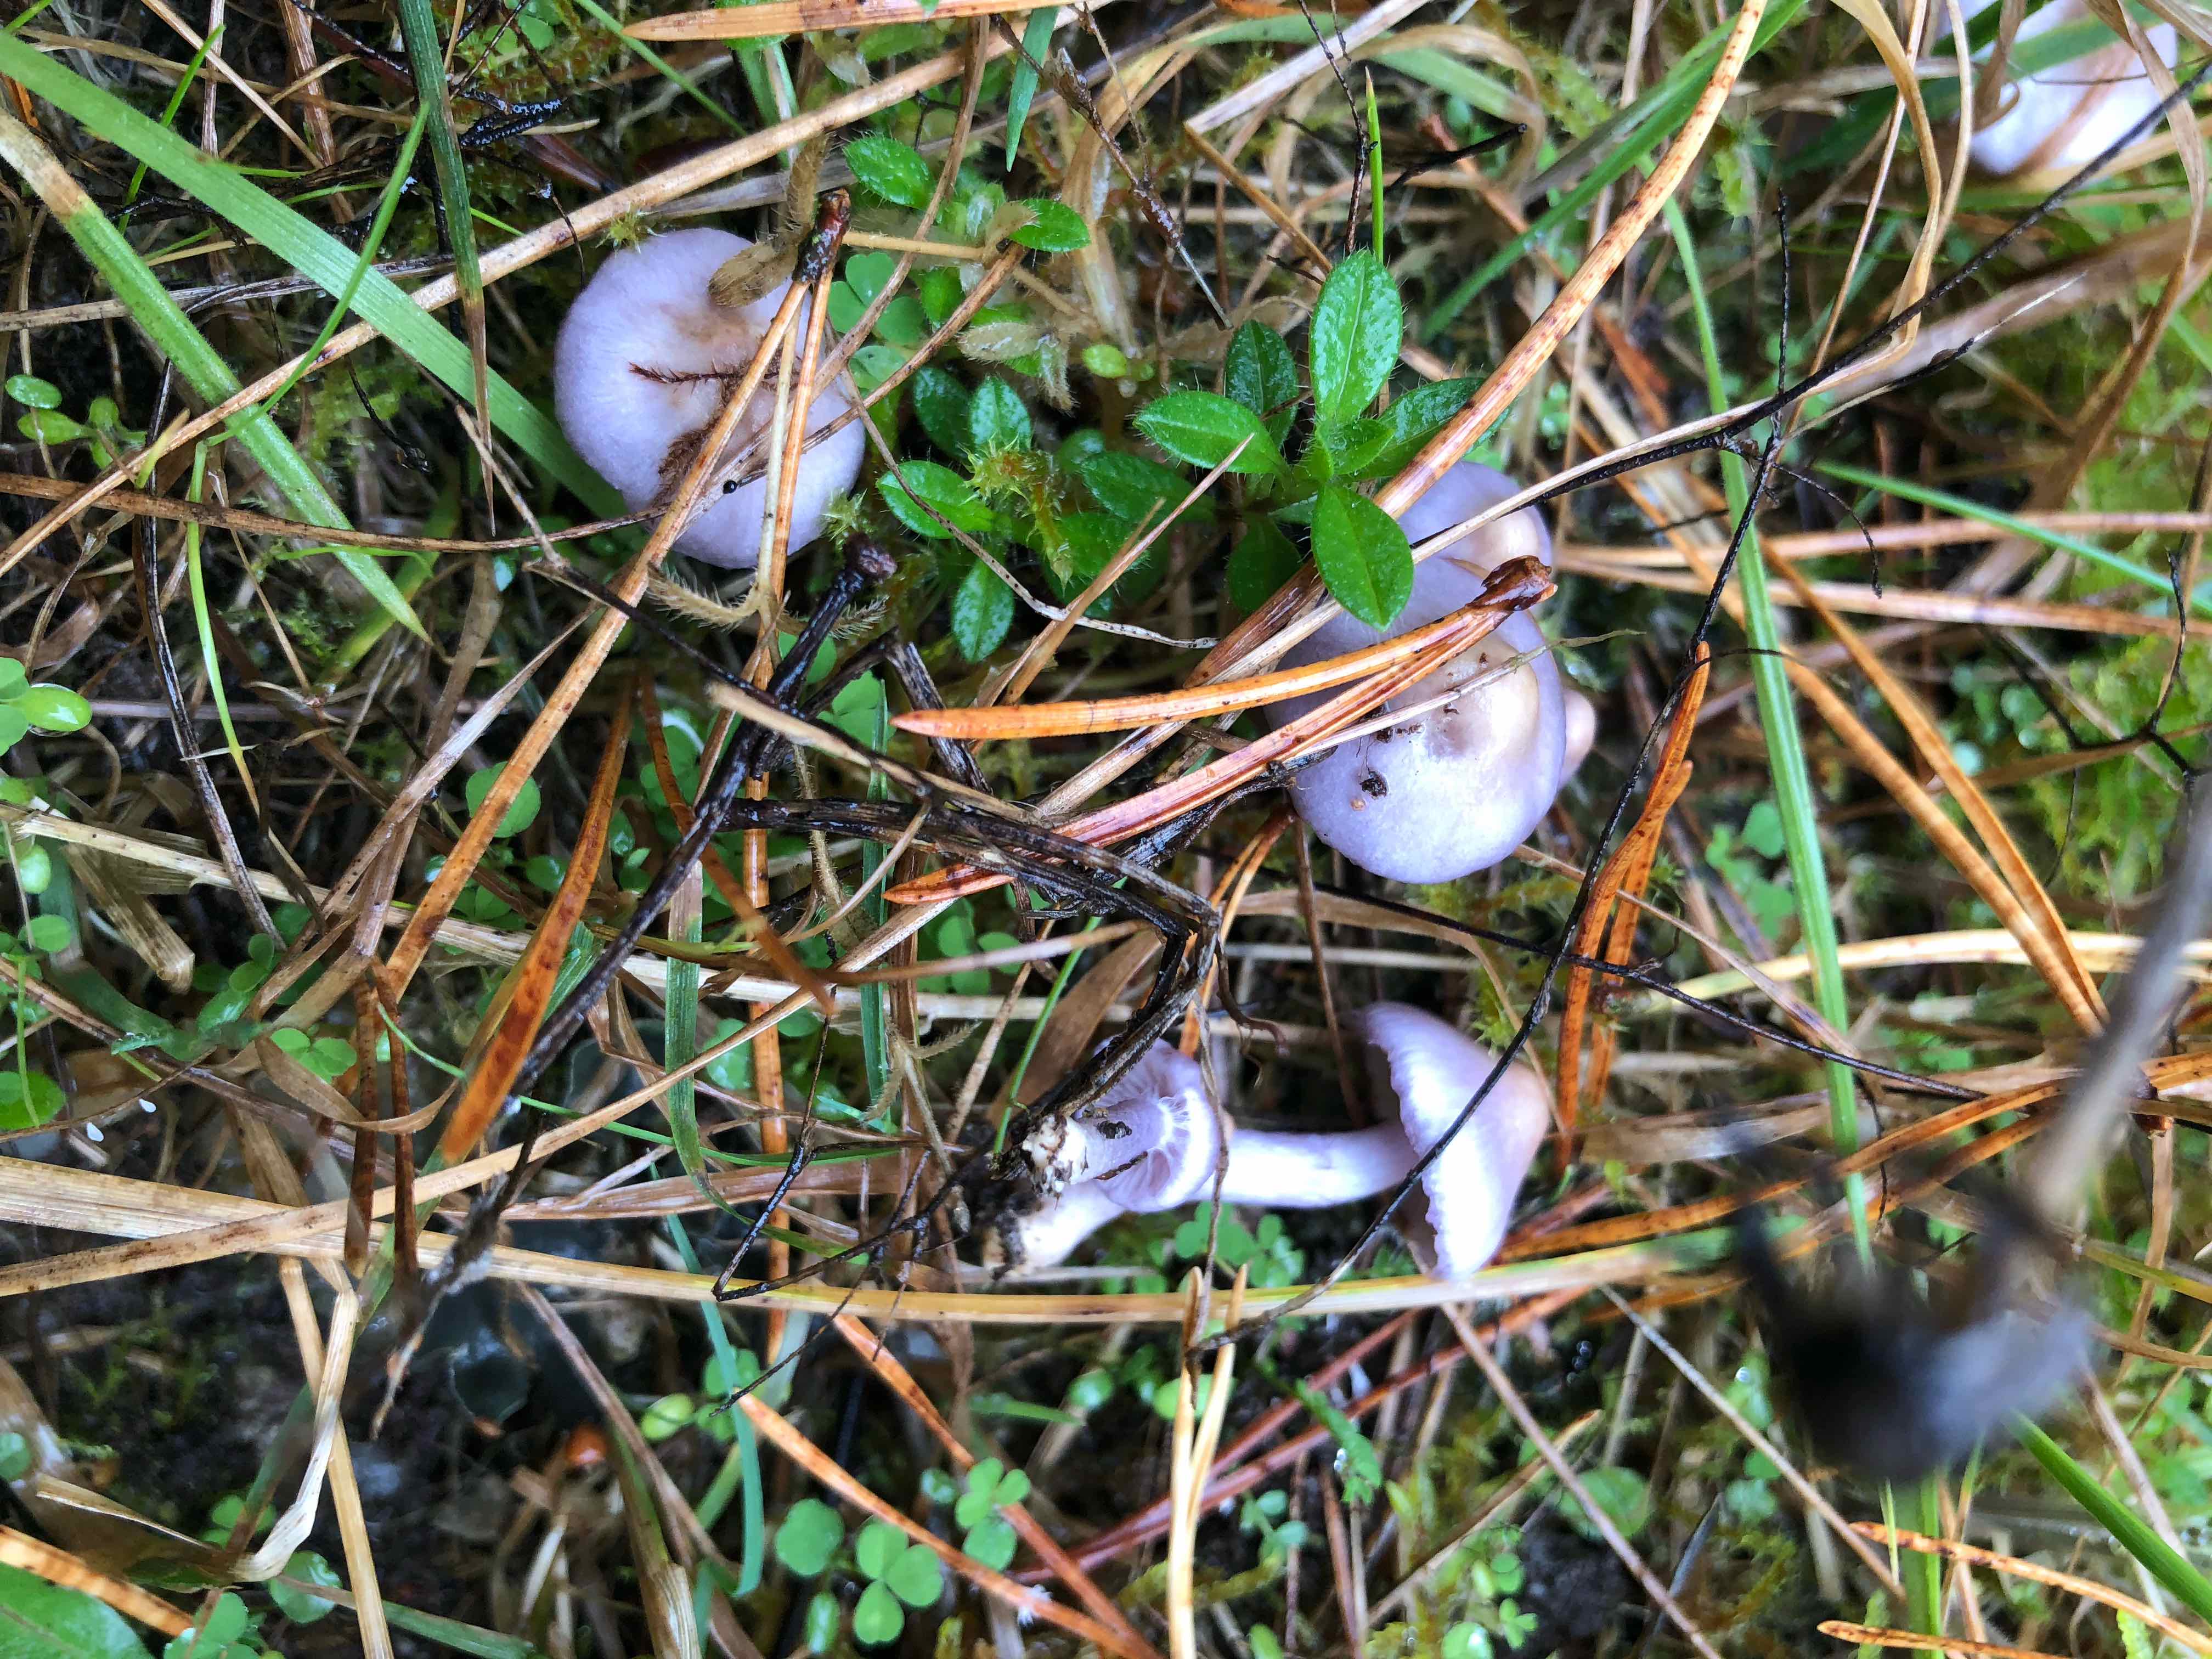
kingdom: Fungi
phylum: Basidiomycota
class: Agaricomycetes
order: Agaricales
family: Inocybaceae
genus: Inocybe
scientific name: Inocybe geophylla
